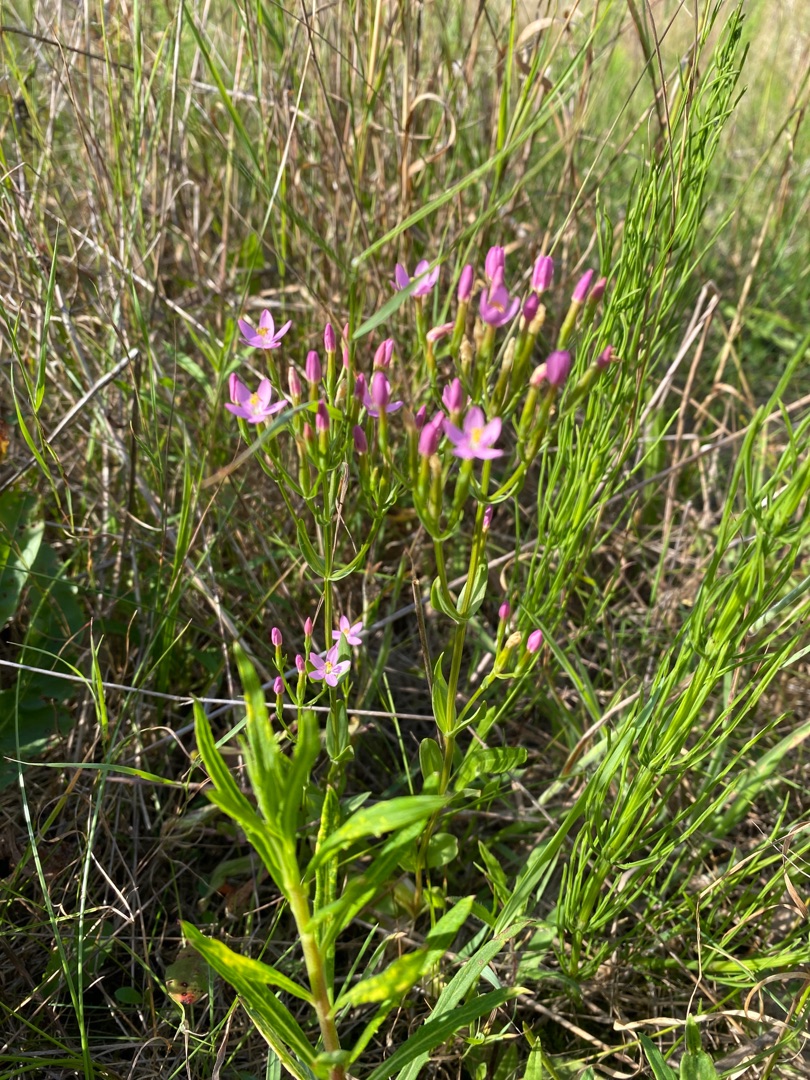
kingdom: Plantae
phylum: Tracheophyta
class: Magnoliopsida
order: Gentianales
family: Gentianaceae
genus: Centaurium
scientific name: Centaurium erythraea
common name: Mark-tusindgylden
